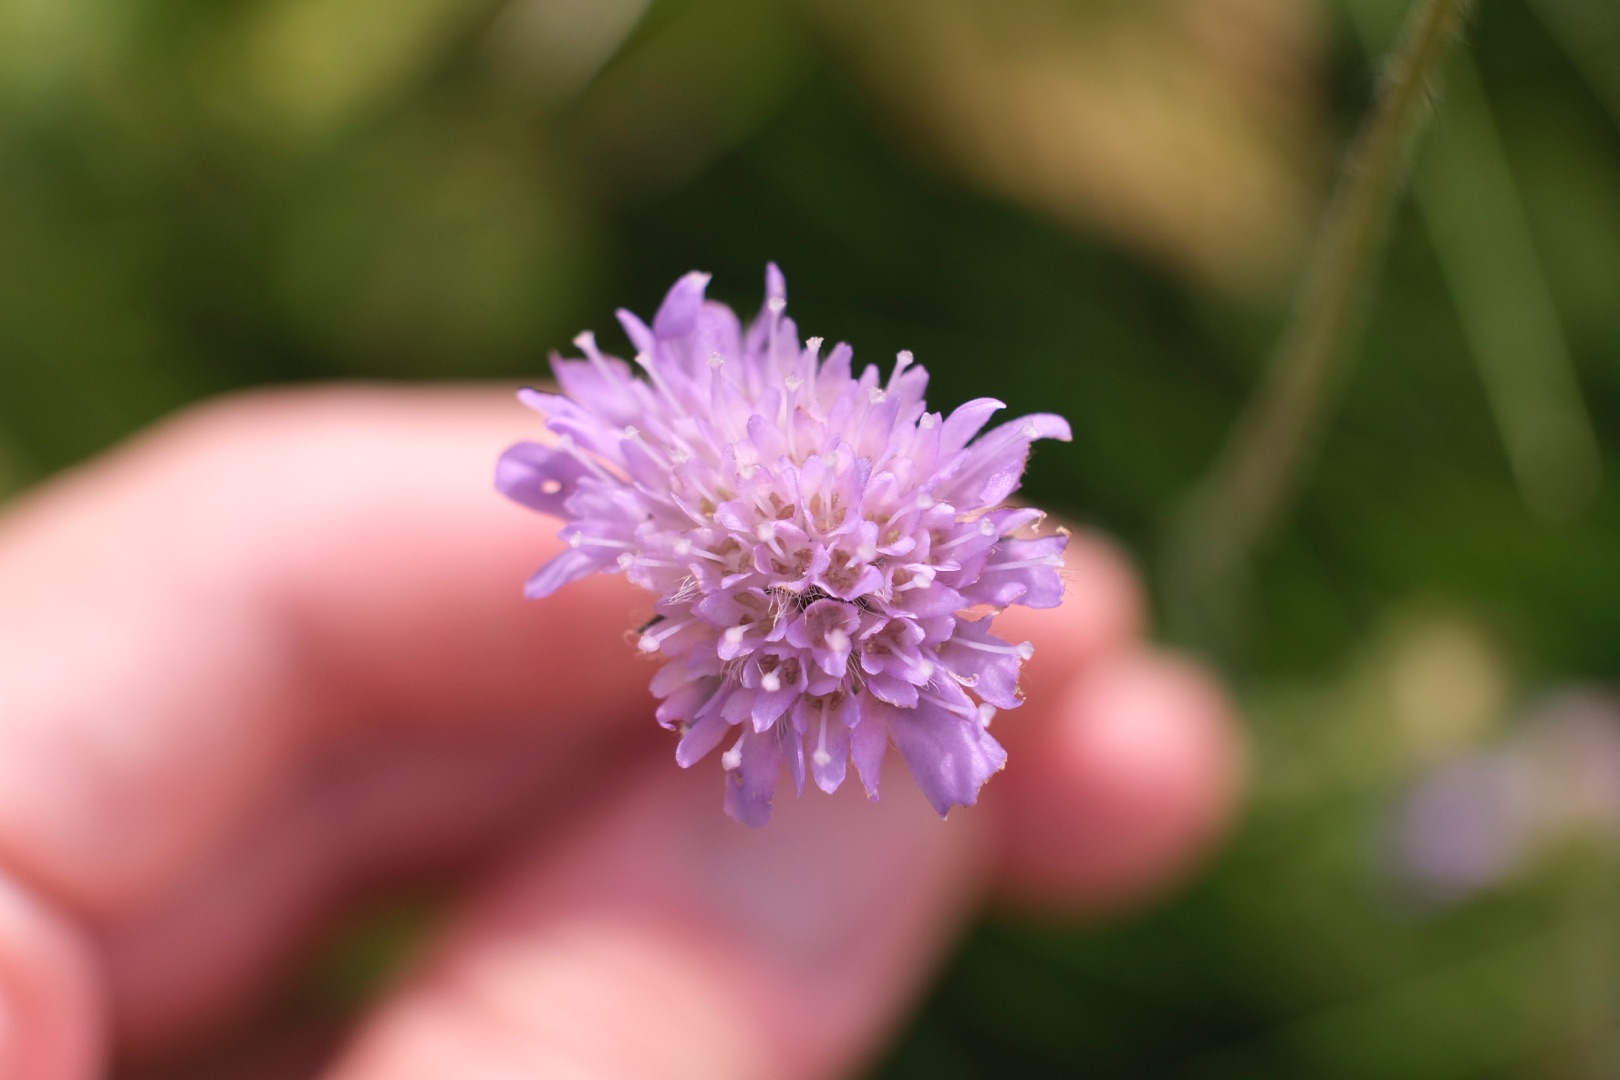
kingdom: Plantae
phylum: Tracheophyta
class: Magnoliopsida
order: Dipsacales
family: Caprifoliaceae
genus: Knautia
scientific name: Knautia arvensis
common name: Blåhat
